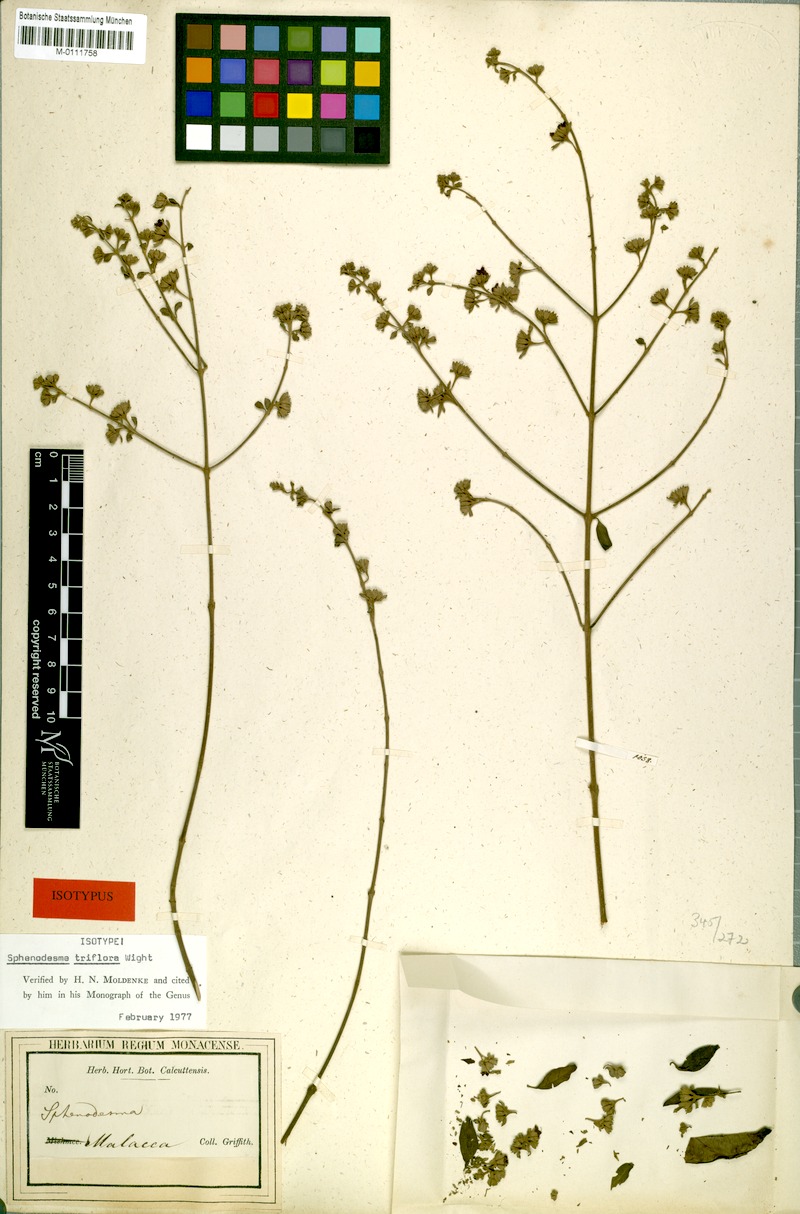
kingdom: Plantae
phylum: Tracheophyta
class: Magnoliopsida
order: Lamiales
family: Lamiaceae
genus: Sphenodesme
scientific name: Sphenodesme triflora
